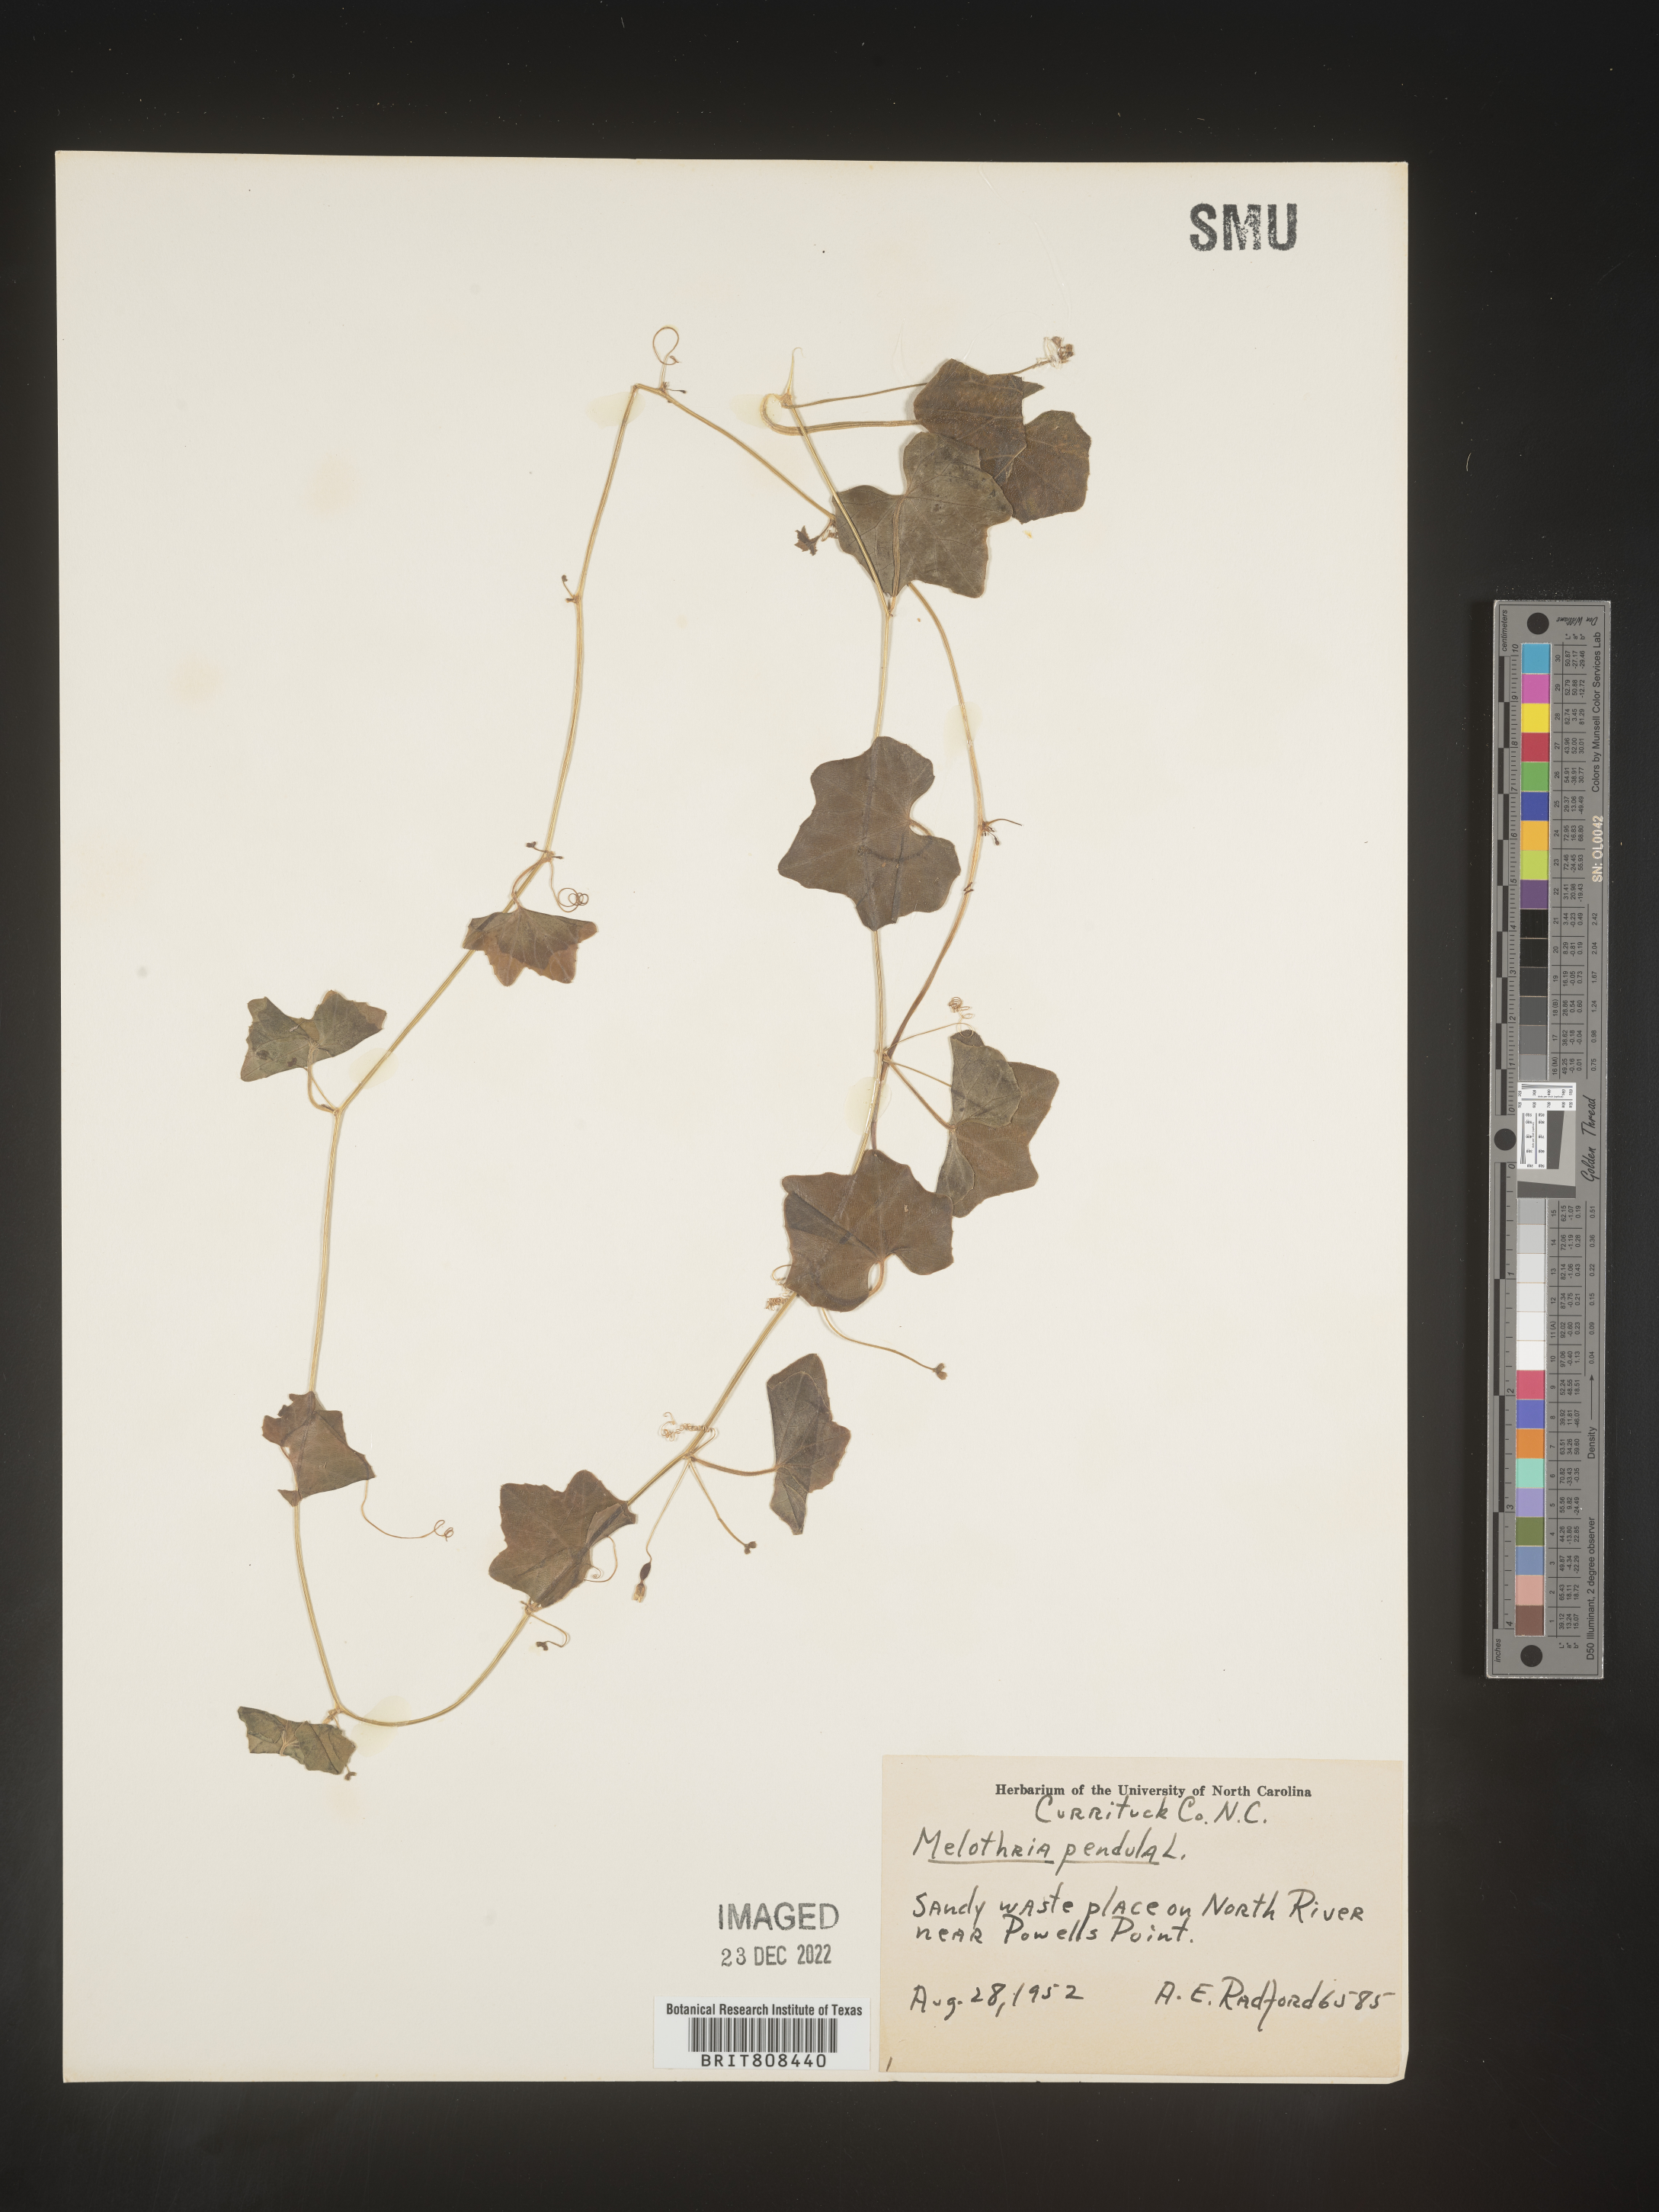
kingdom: Plantae
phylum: Tracheophyta
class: Magnoliopsida
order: Cucurbitales
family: Cucurbitaceae
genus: Melothria
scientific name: Melothria pendula
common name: Creeping-cucumber
